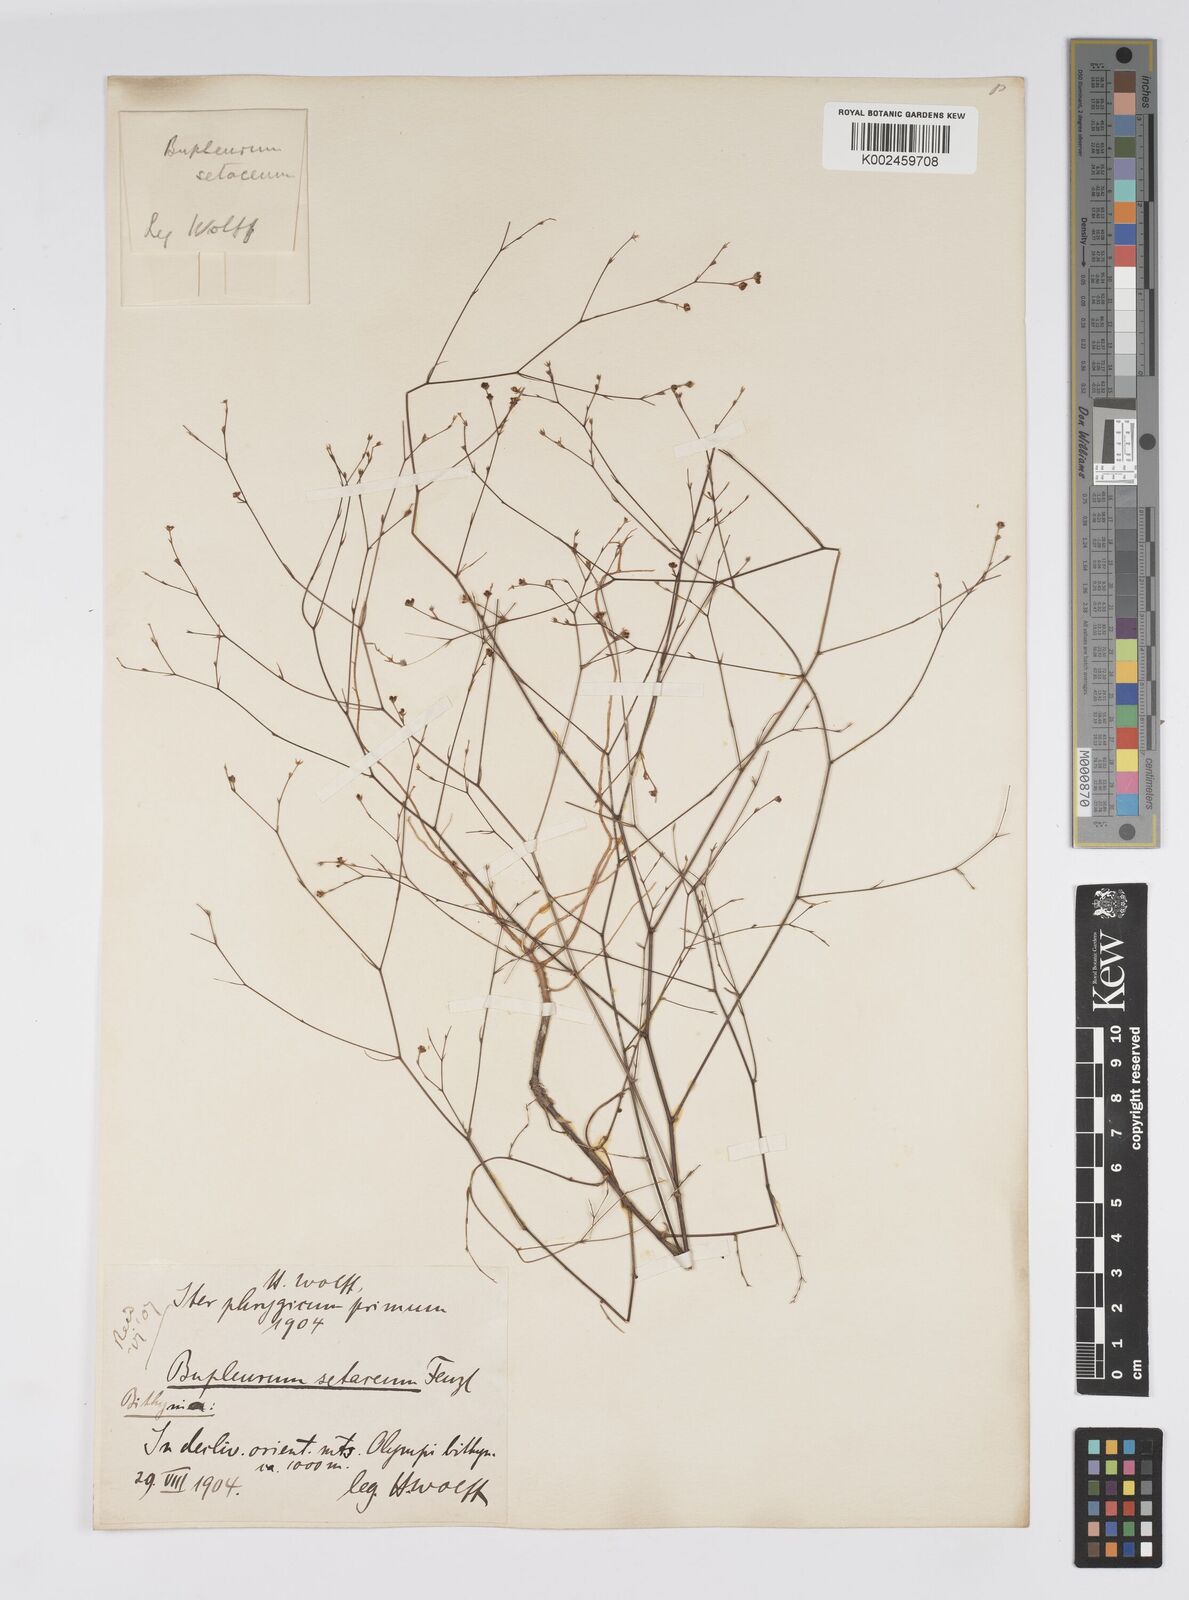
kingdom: Plantae
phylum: Tracheophyta
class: Magnoliopsida
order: Apiales
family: Apiaceae
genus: Bupleurum
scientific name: Bupleurum setaceum
